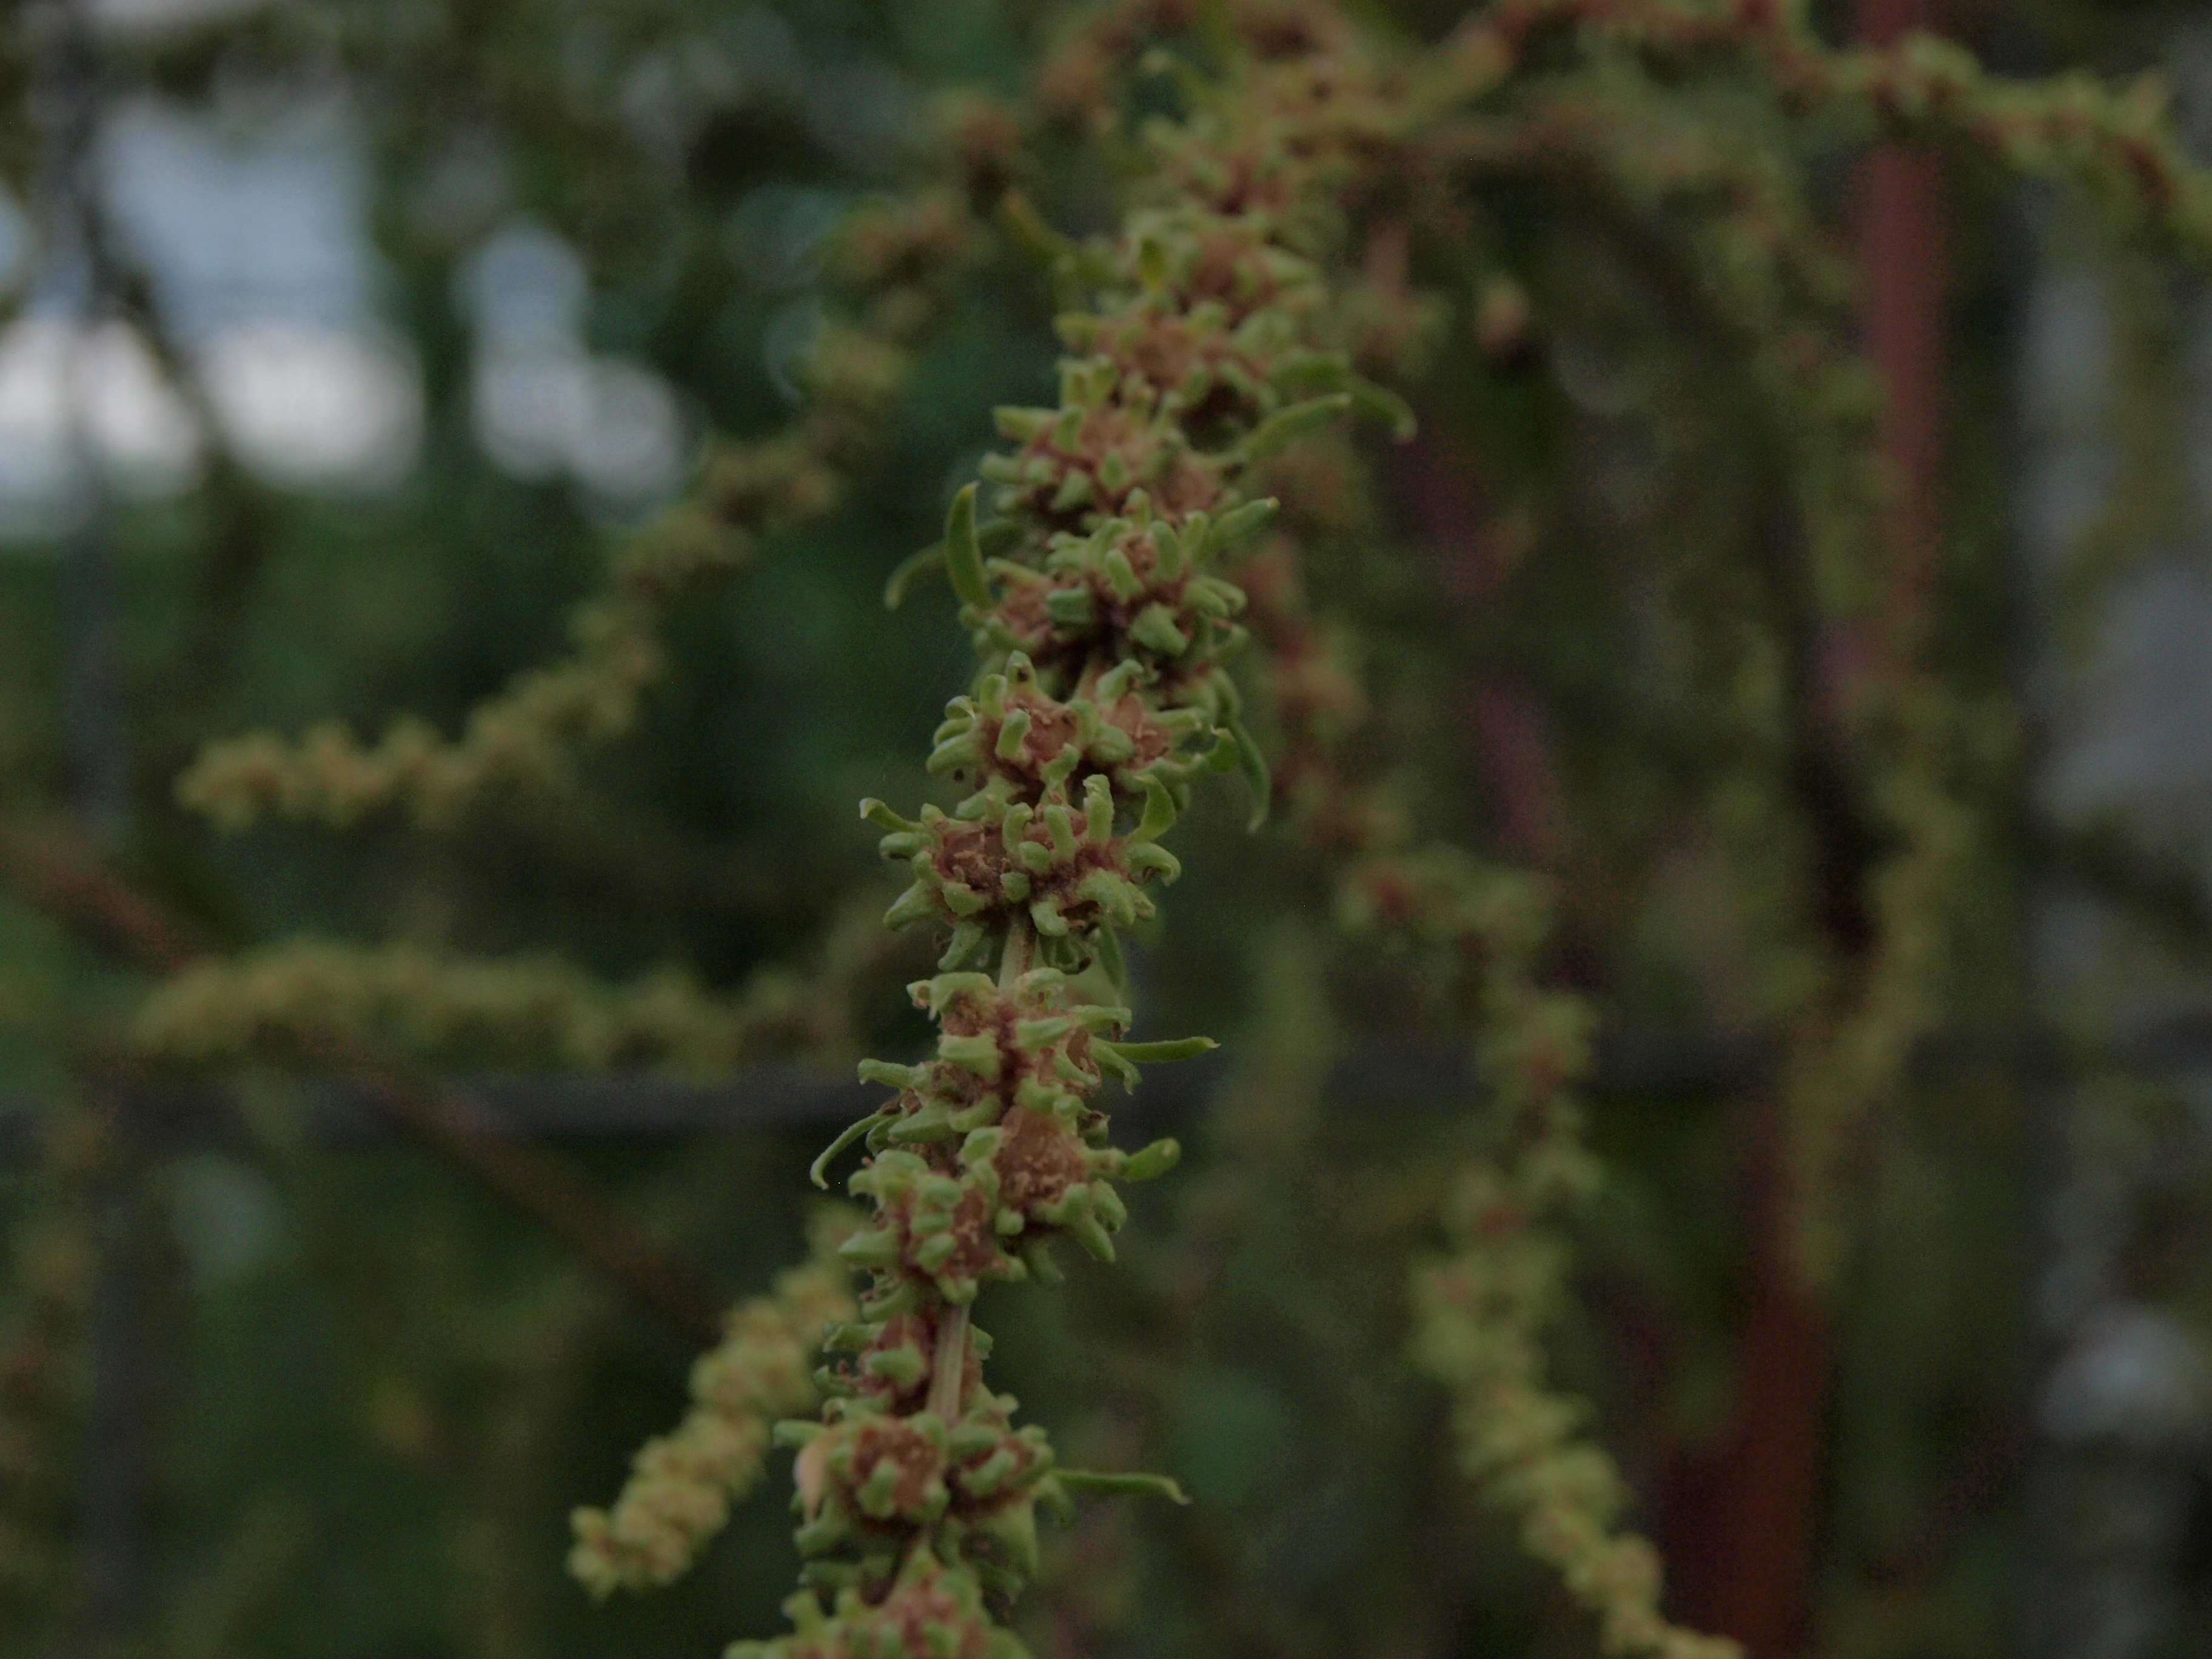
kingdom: Plantae
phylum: Tracheophyta
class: Magnoliopsida
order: Caryophyllales
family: Amaranthaceae
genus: Beta
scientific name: Beta vulgaris
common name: Beet
